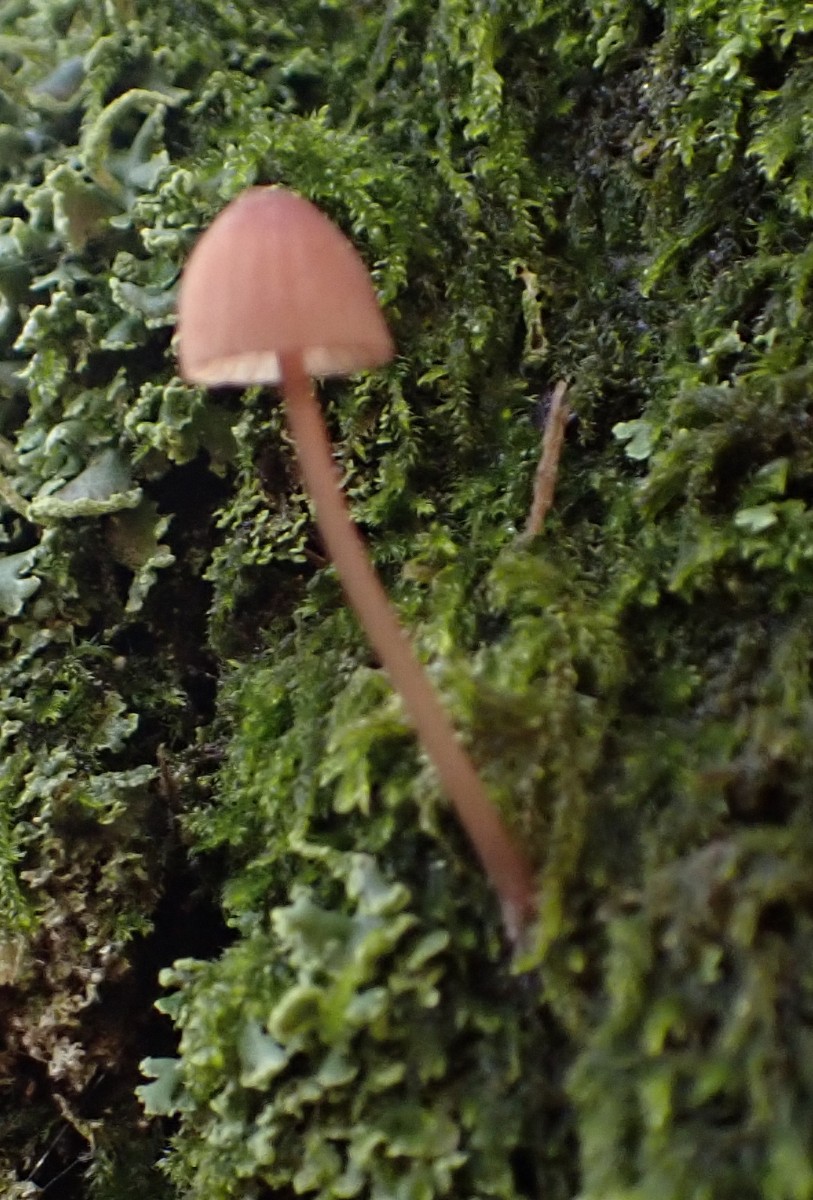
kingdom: Fungi
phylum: Basidiomycota
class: Agaricomycetes
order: Agaricales
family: Mycenaceae
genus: Mycena
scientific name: Mycena
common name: huesvamp
